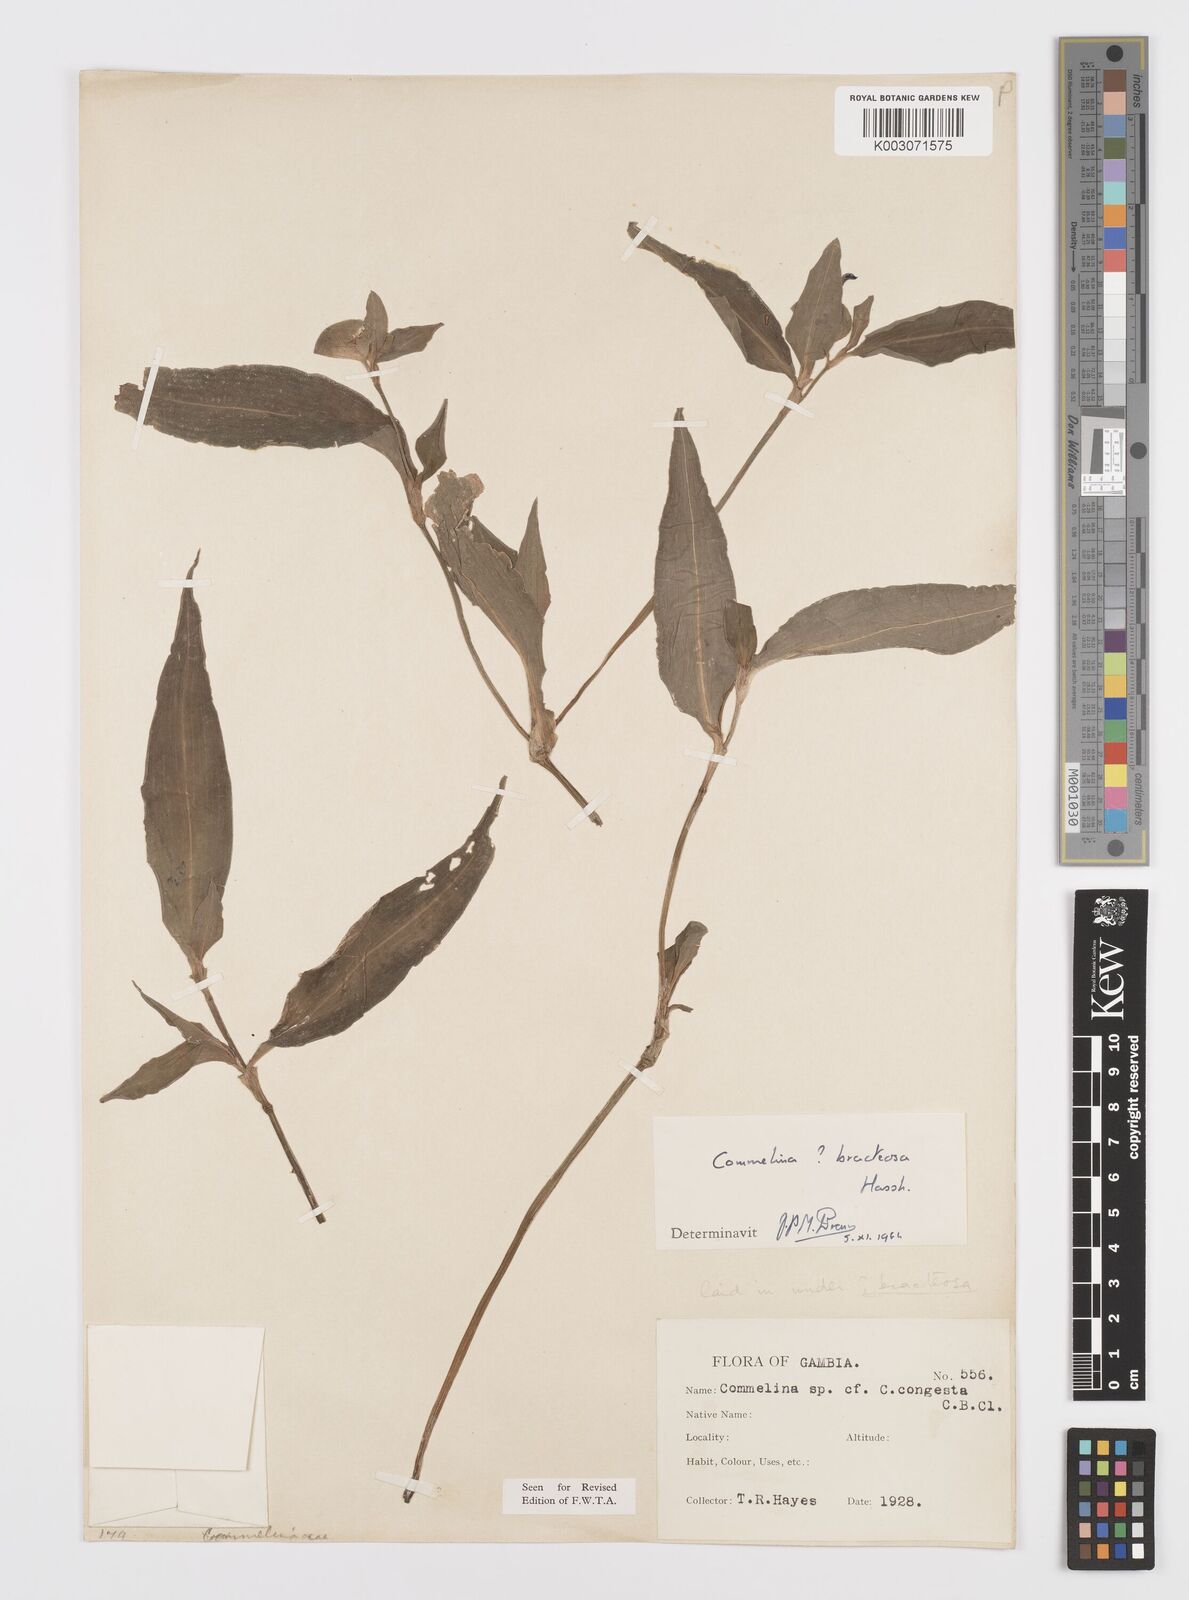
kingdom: Plantae
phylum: Tracheophyta
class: Liliopsida
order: Commelinales
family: Commelinaceae
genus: Commelina
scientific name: Commelina bracteosa
